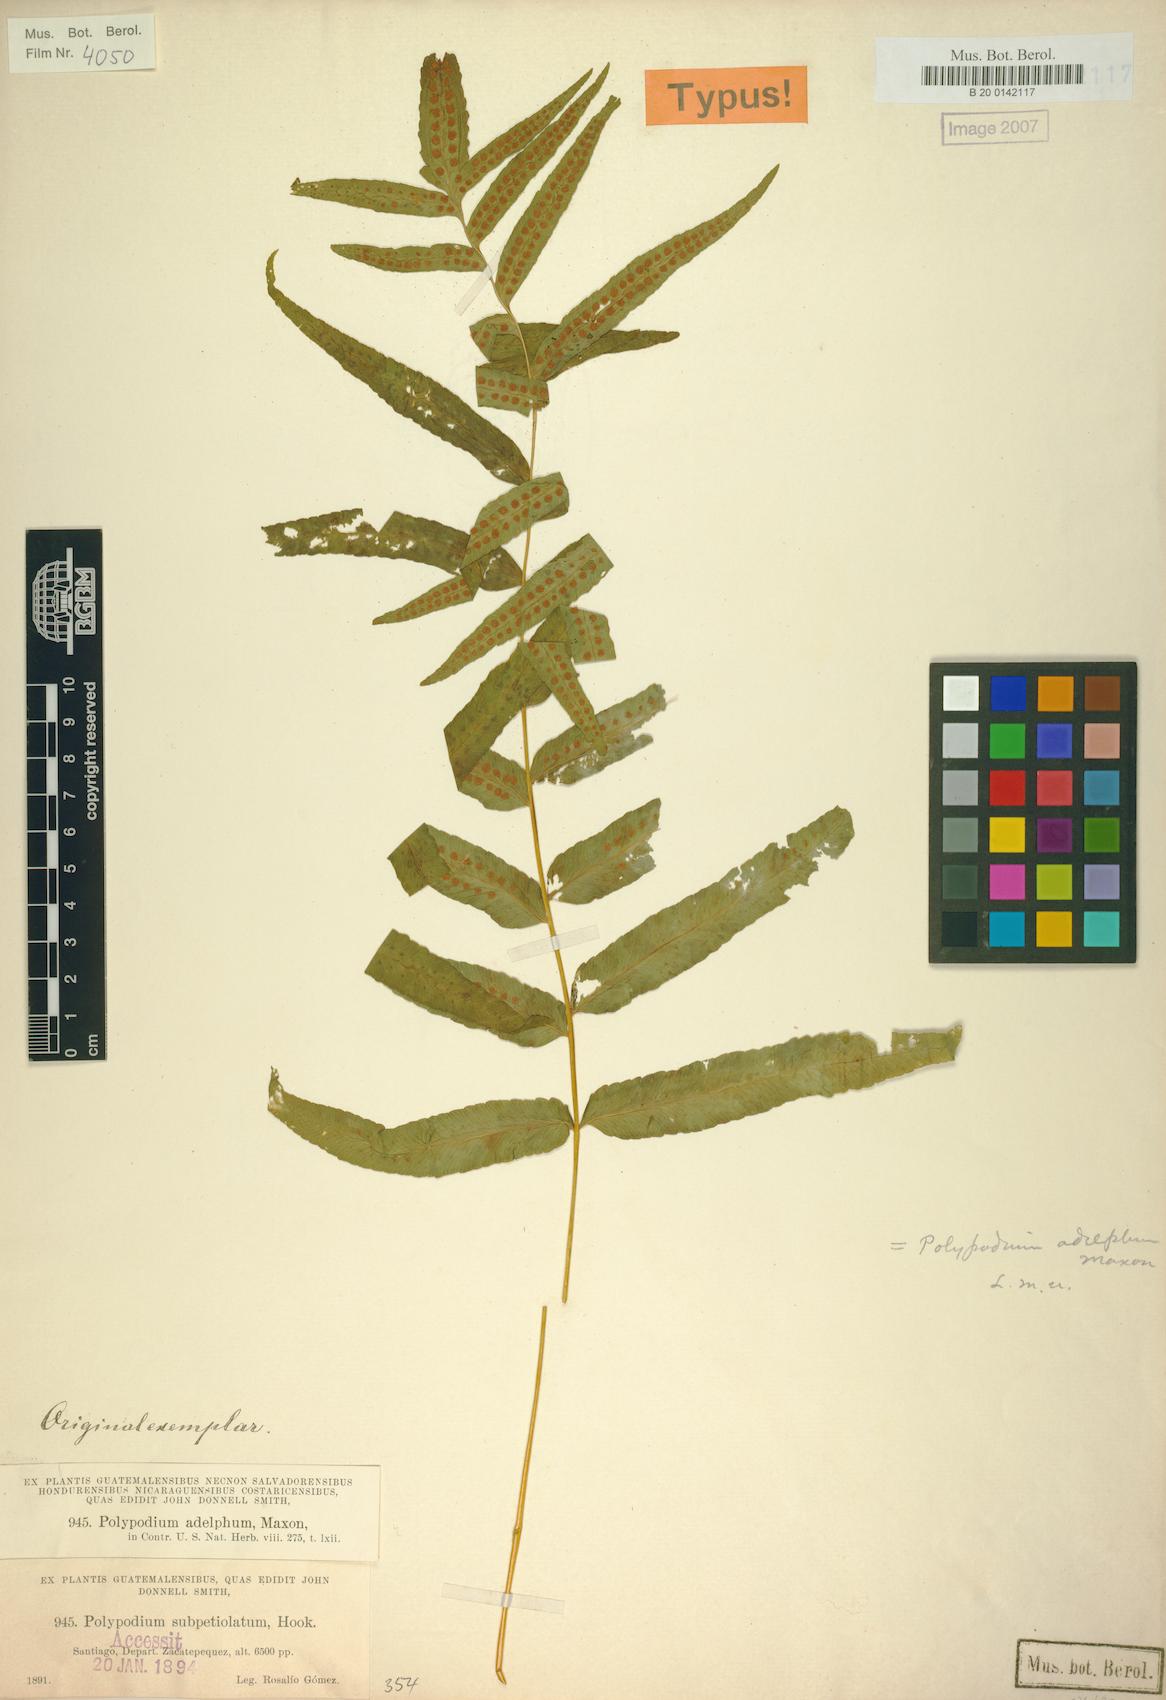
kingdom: Plantae
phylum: Tracheophyta
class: Polypodiopsida
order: Polypodiales
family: Polypodiaceae
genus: Polypodium
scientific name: Polypodium subpetiolatum
